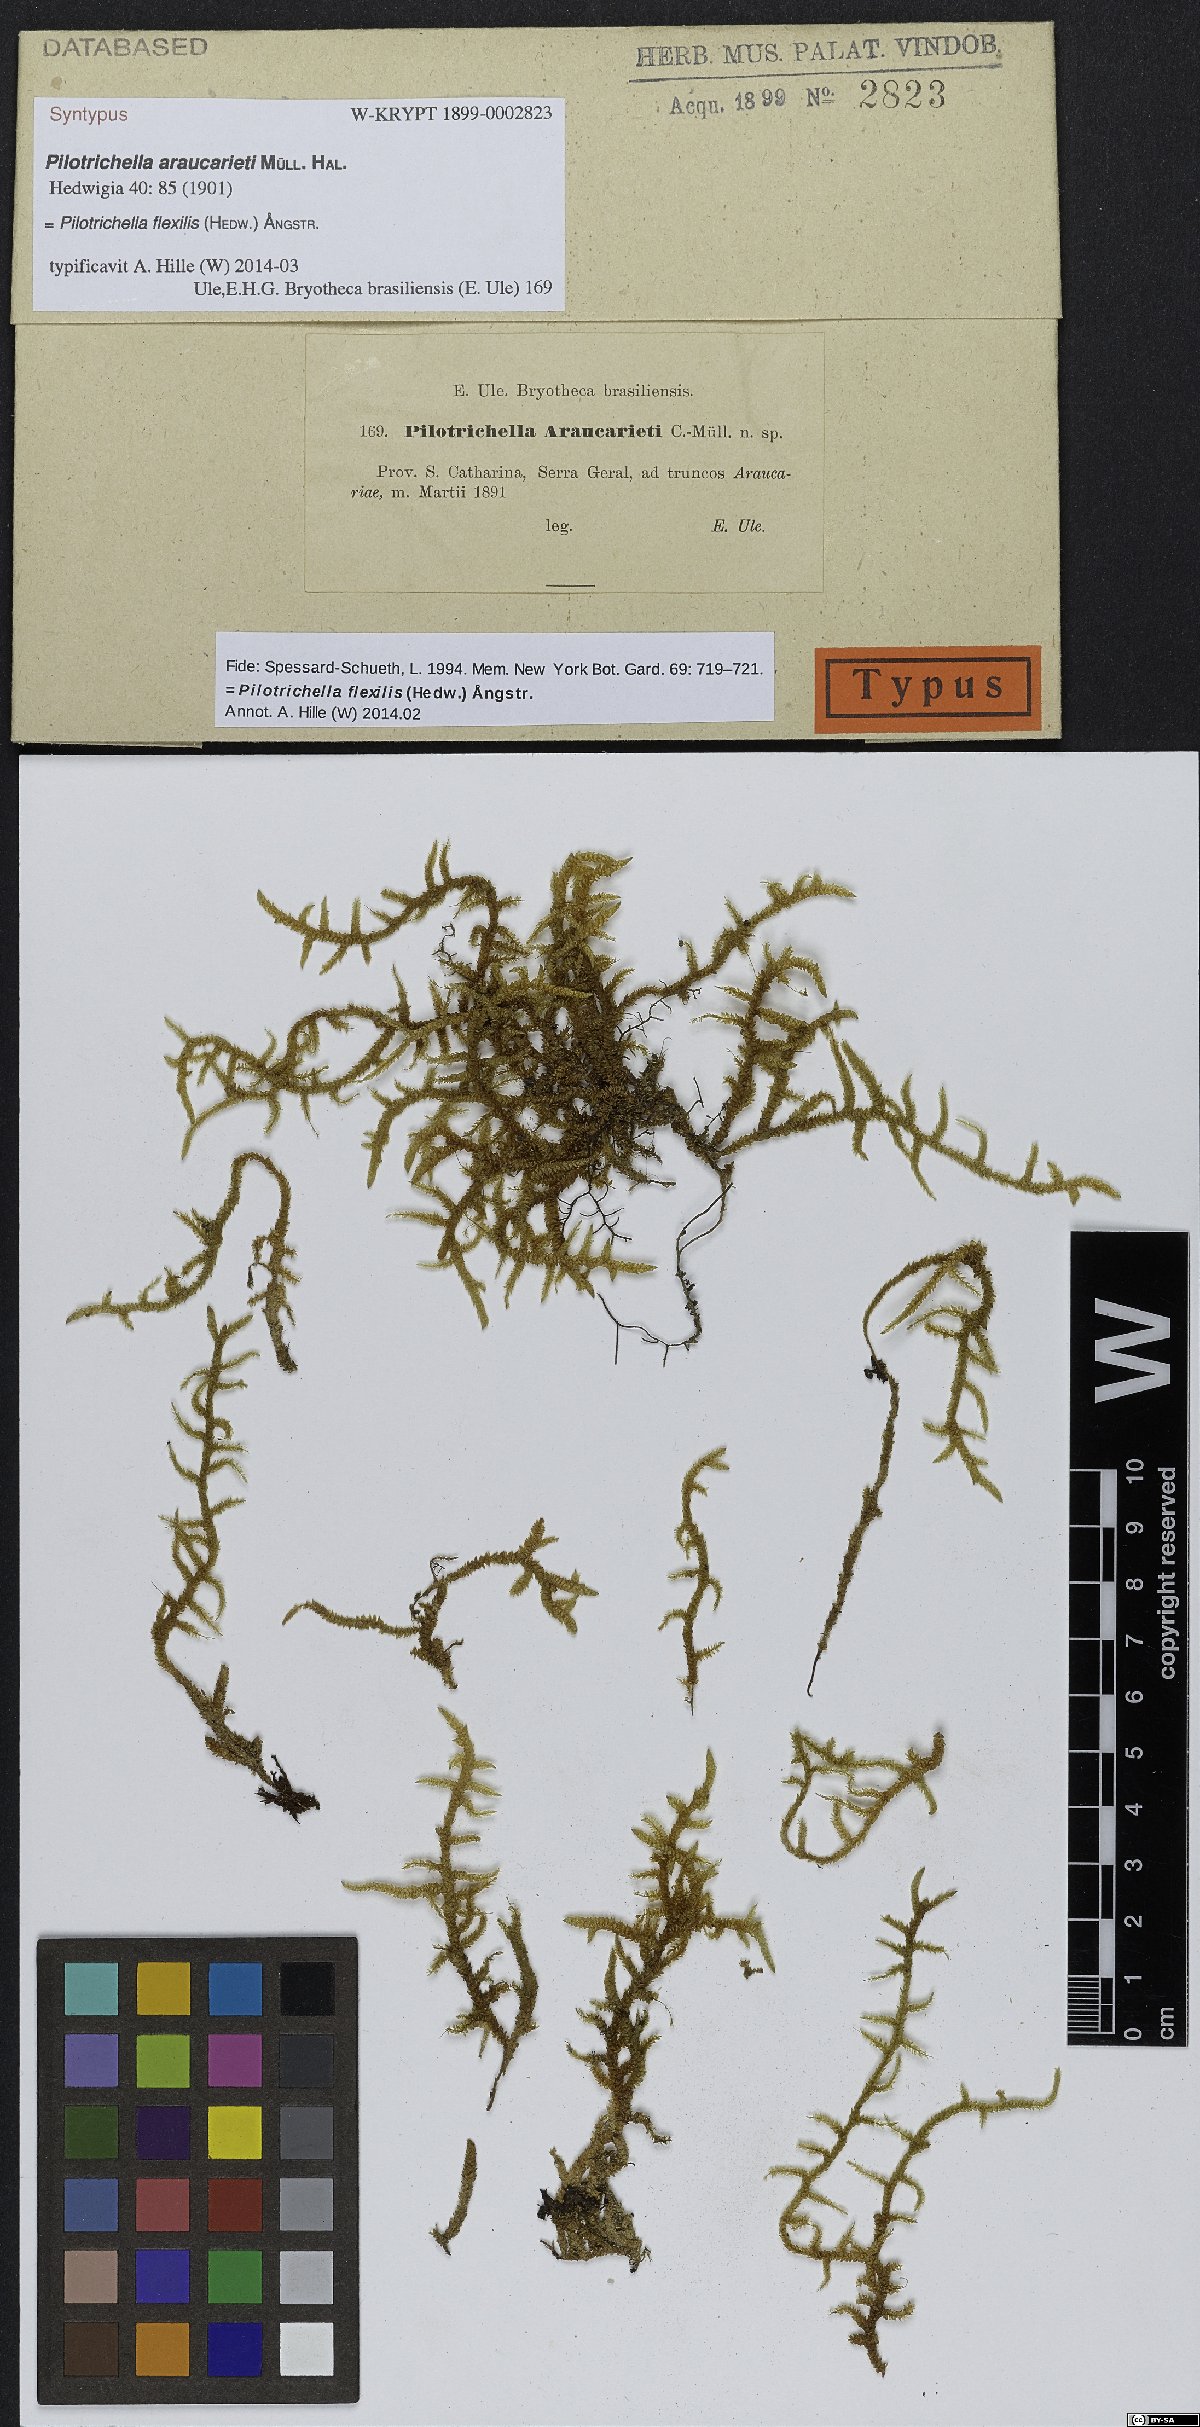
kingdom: Plantae
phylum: Bryophyta
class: Bryopsida
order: Hypnales
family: Lembophyllaceae
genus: Pilotrichella
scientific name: Pilotrichella flexilis
